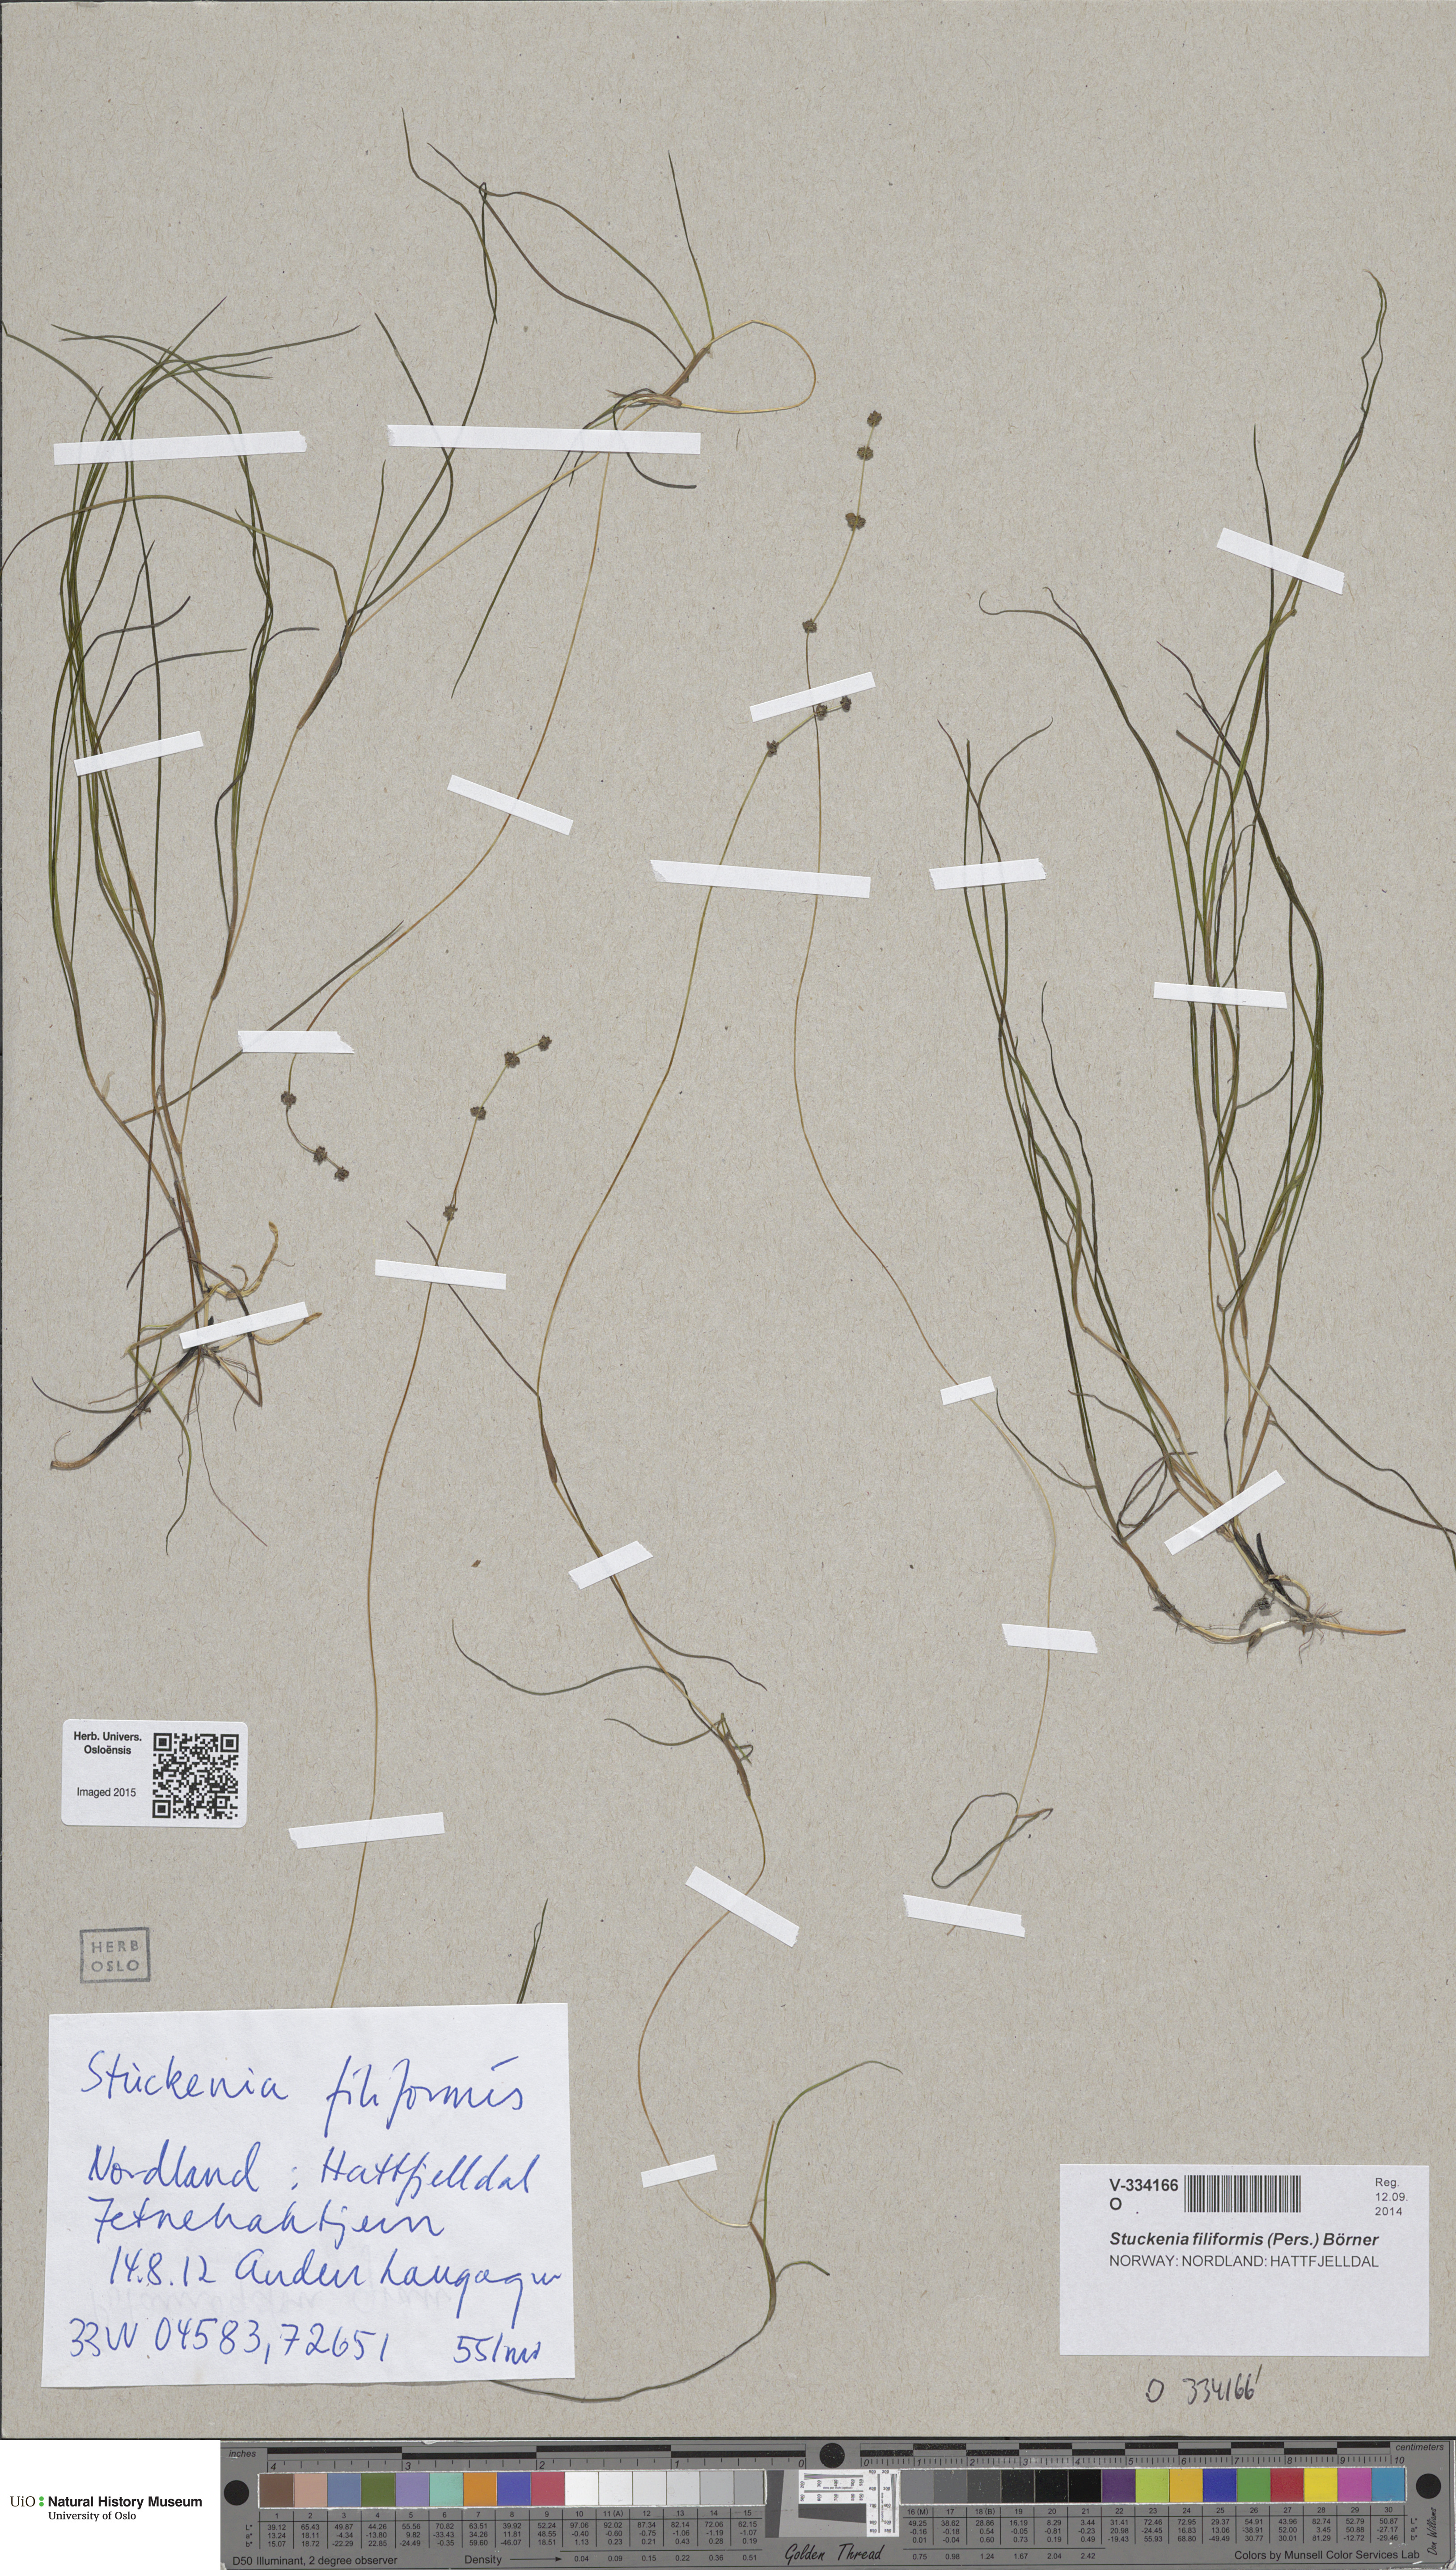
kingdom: Plantae
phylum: Tracheophyta
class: Liliopsida
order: Alismatales
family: Potamogetonaceae
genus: Stuckenia
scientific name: Stuckenia filiformis
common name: Alpine thread-leaved pondweed
